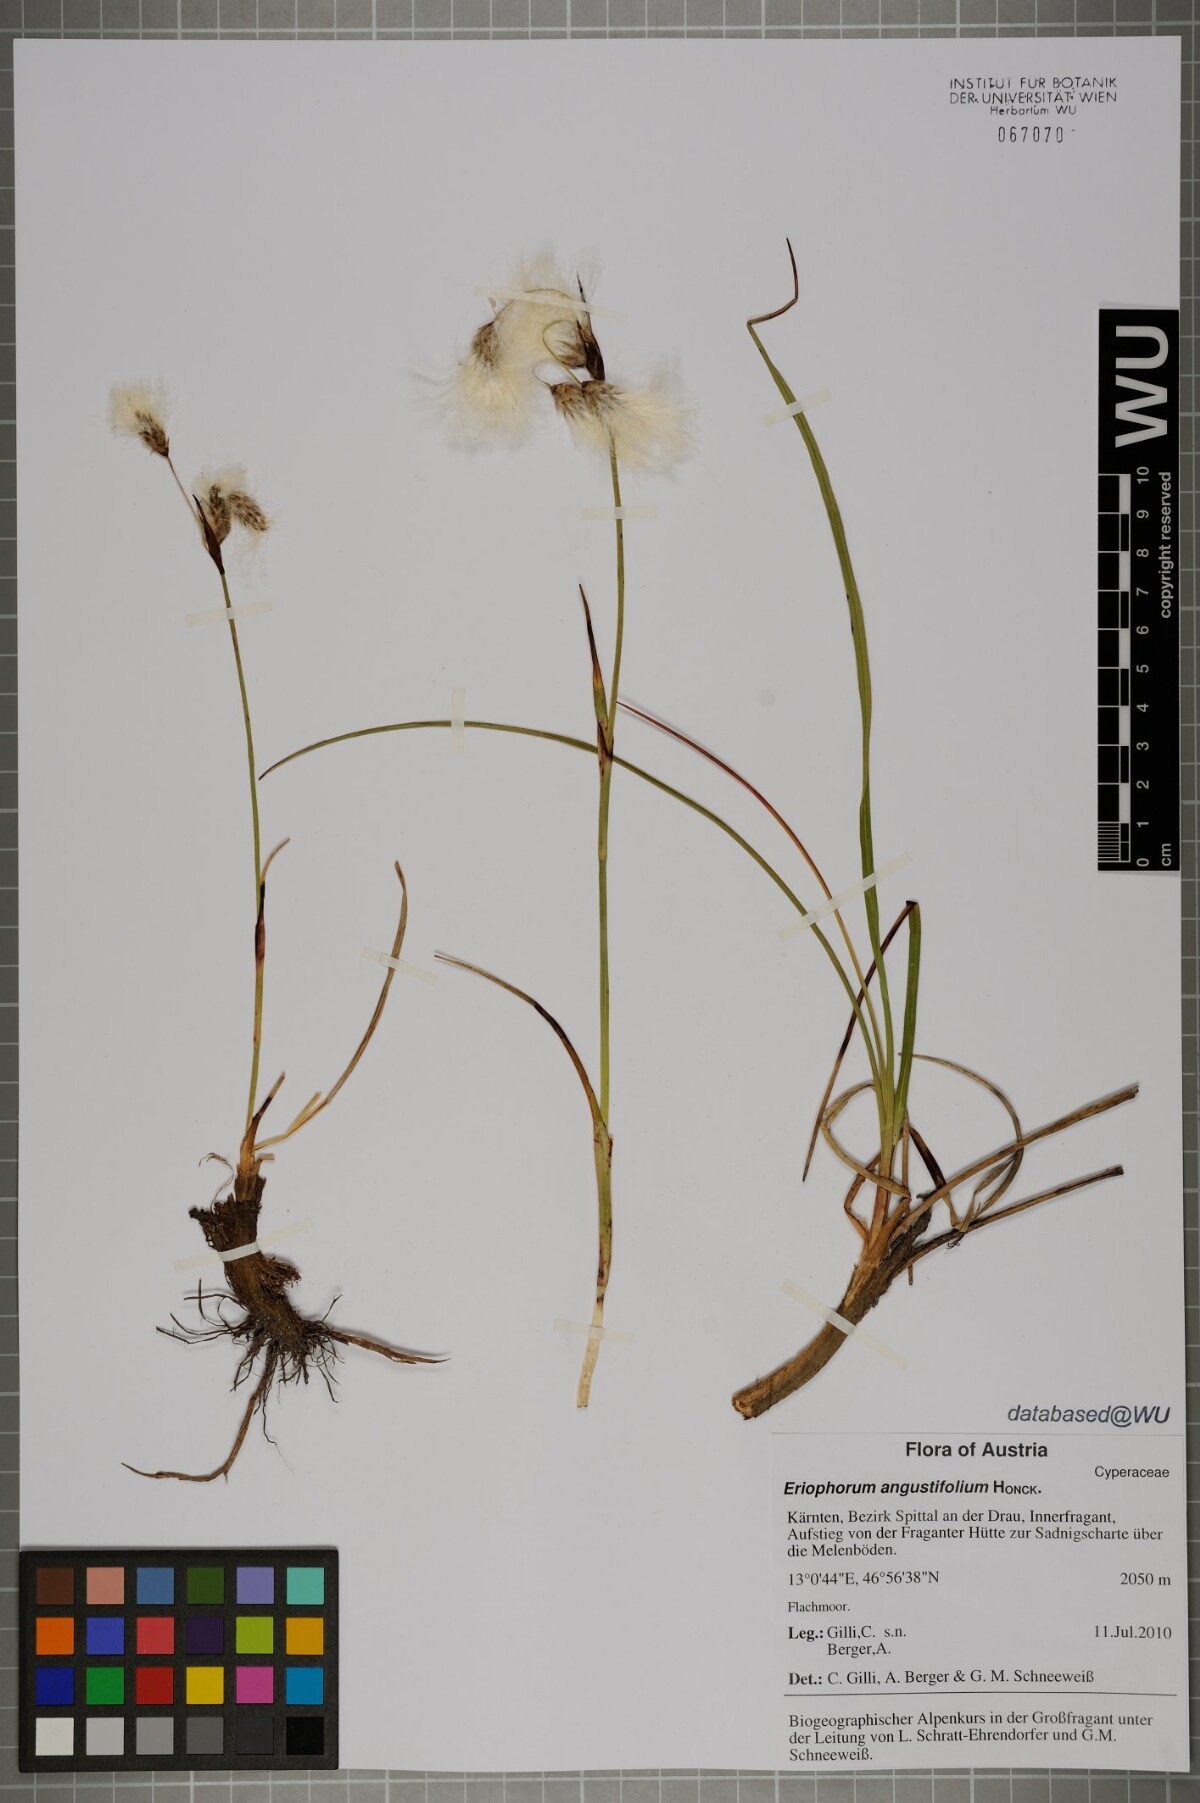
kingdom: Plantae
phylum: Tracheophyta
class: Liliopsida
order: Poales
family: Cyperaceae
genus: Eriophorum
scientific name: Eriophorum angustifolium
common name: Common cottongrass
